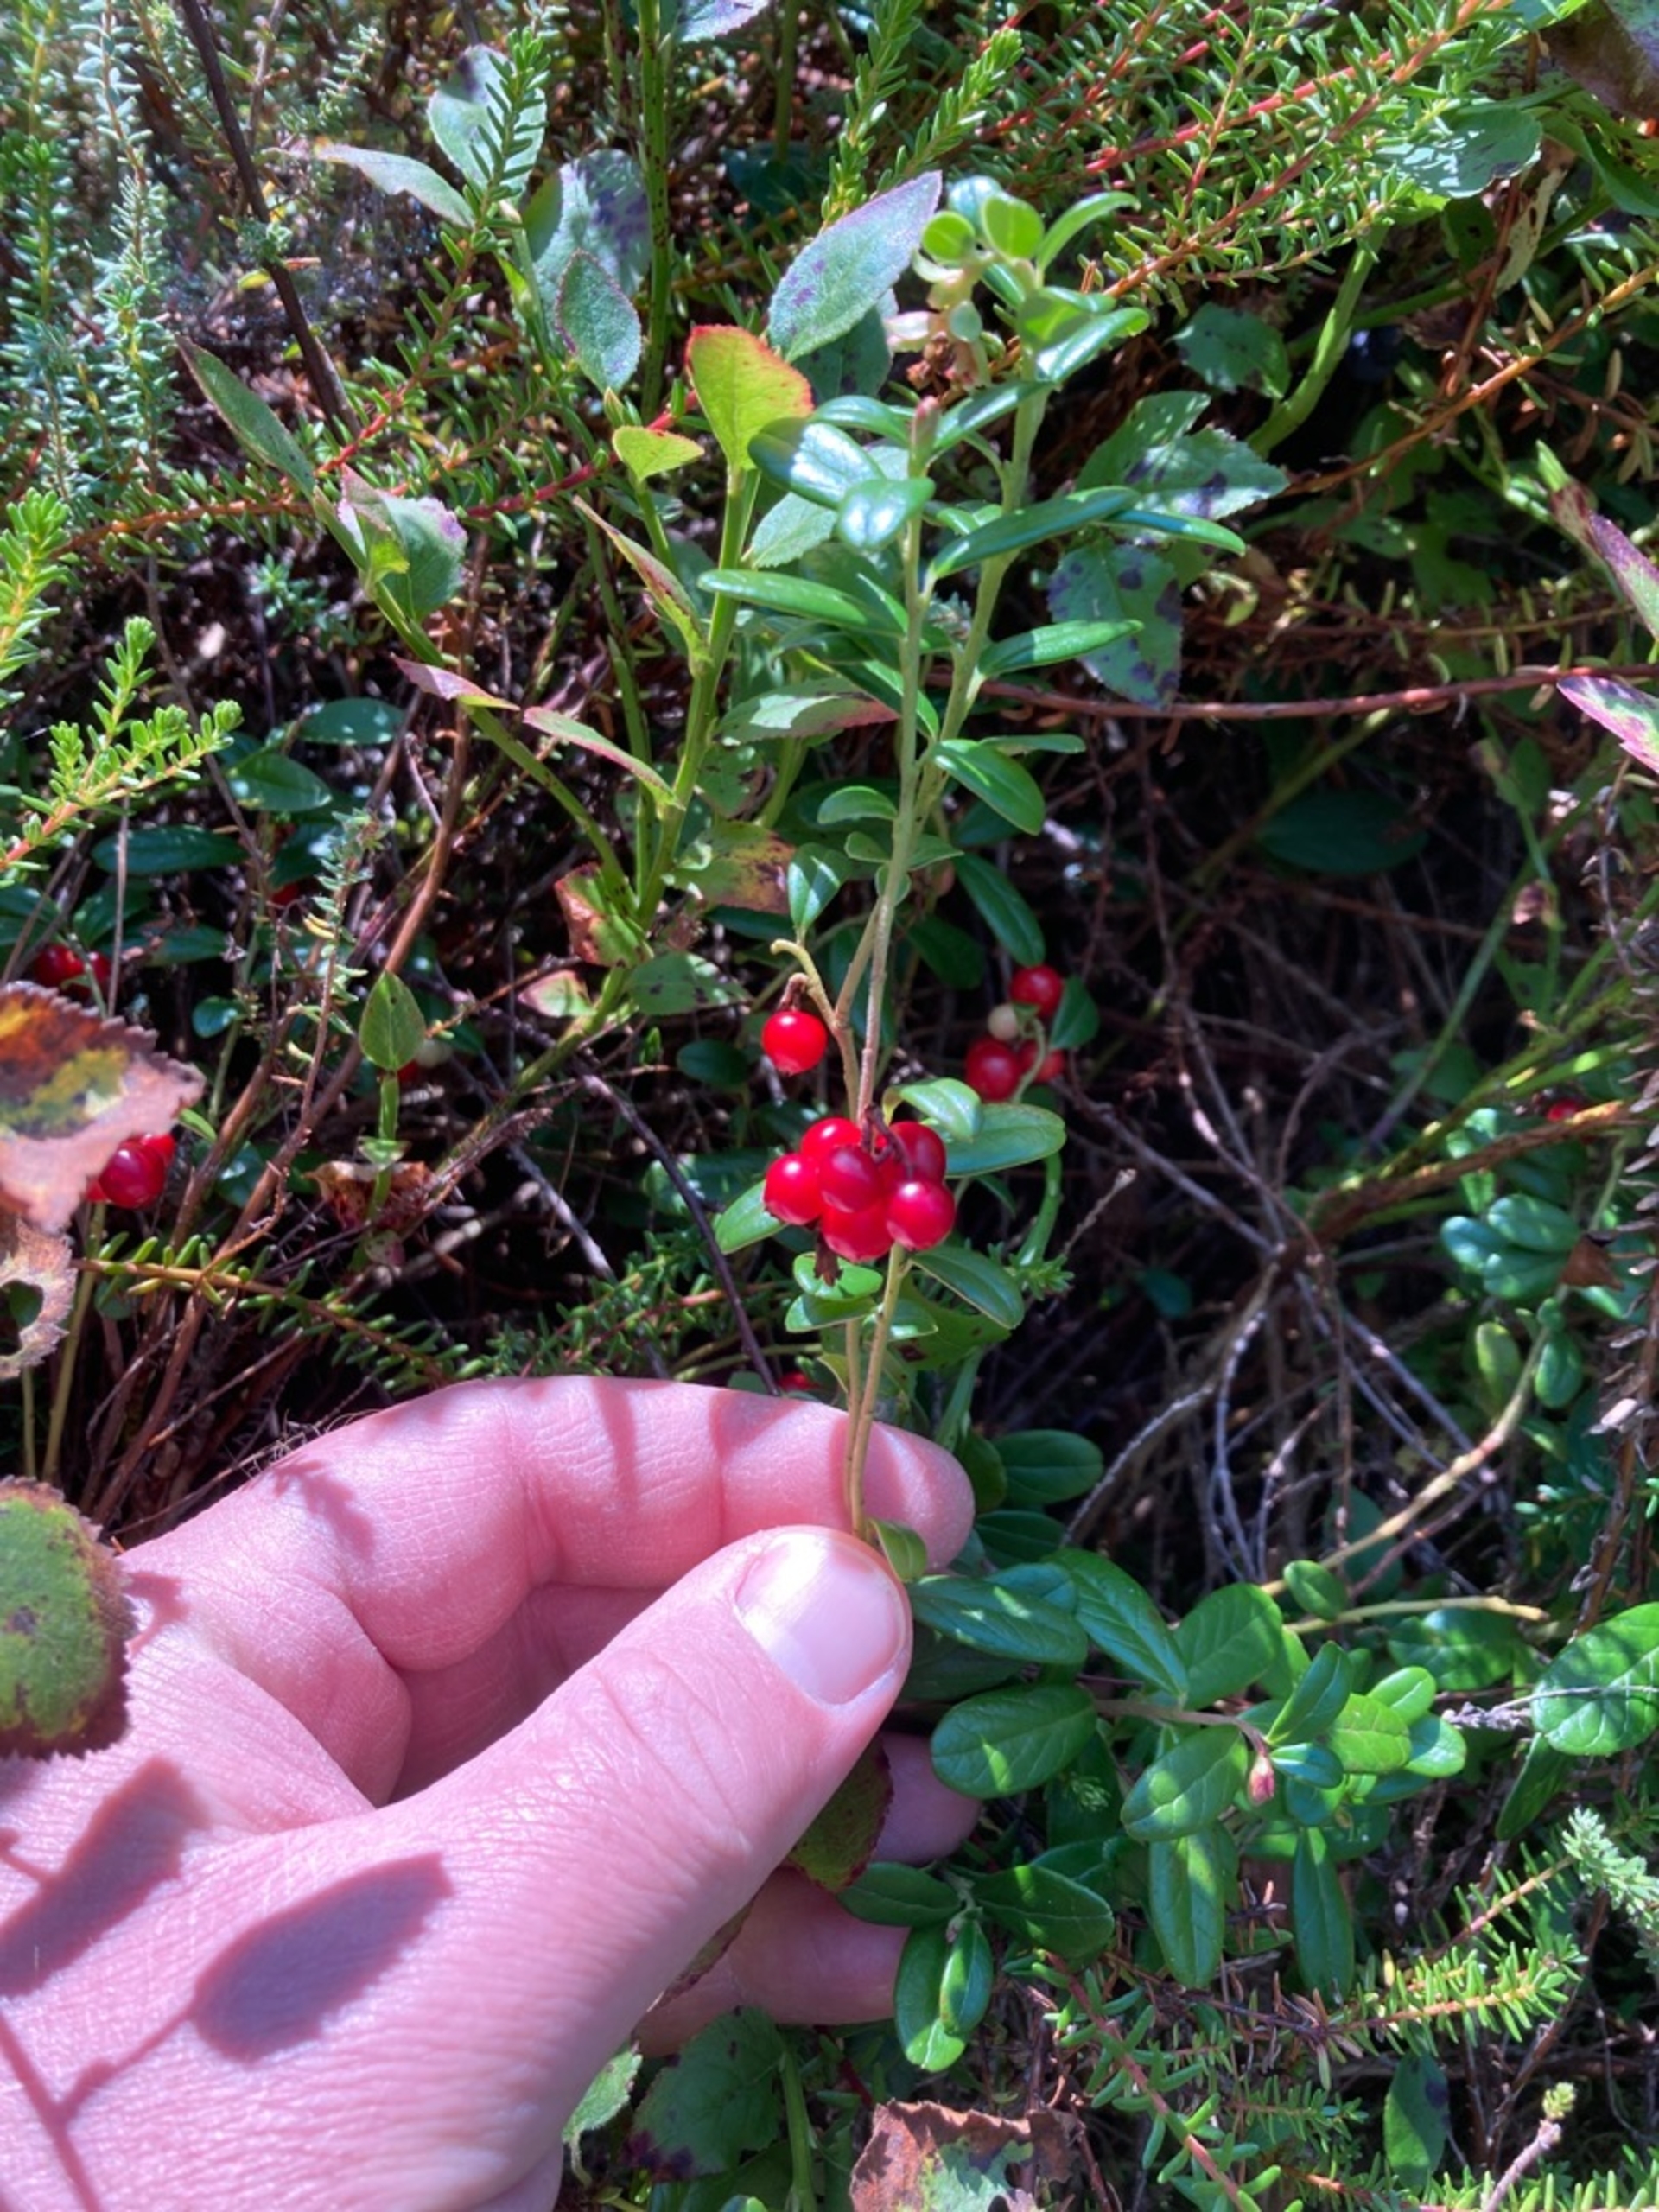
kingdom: Plantae
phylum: Tracheophyta
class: Magnoliopsida
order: Ericales
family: Ericaceae
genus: Vaccinium
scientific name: Vaccinium vitis-idaea
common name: Tyttebær
